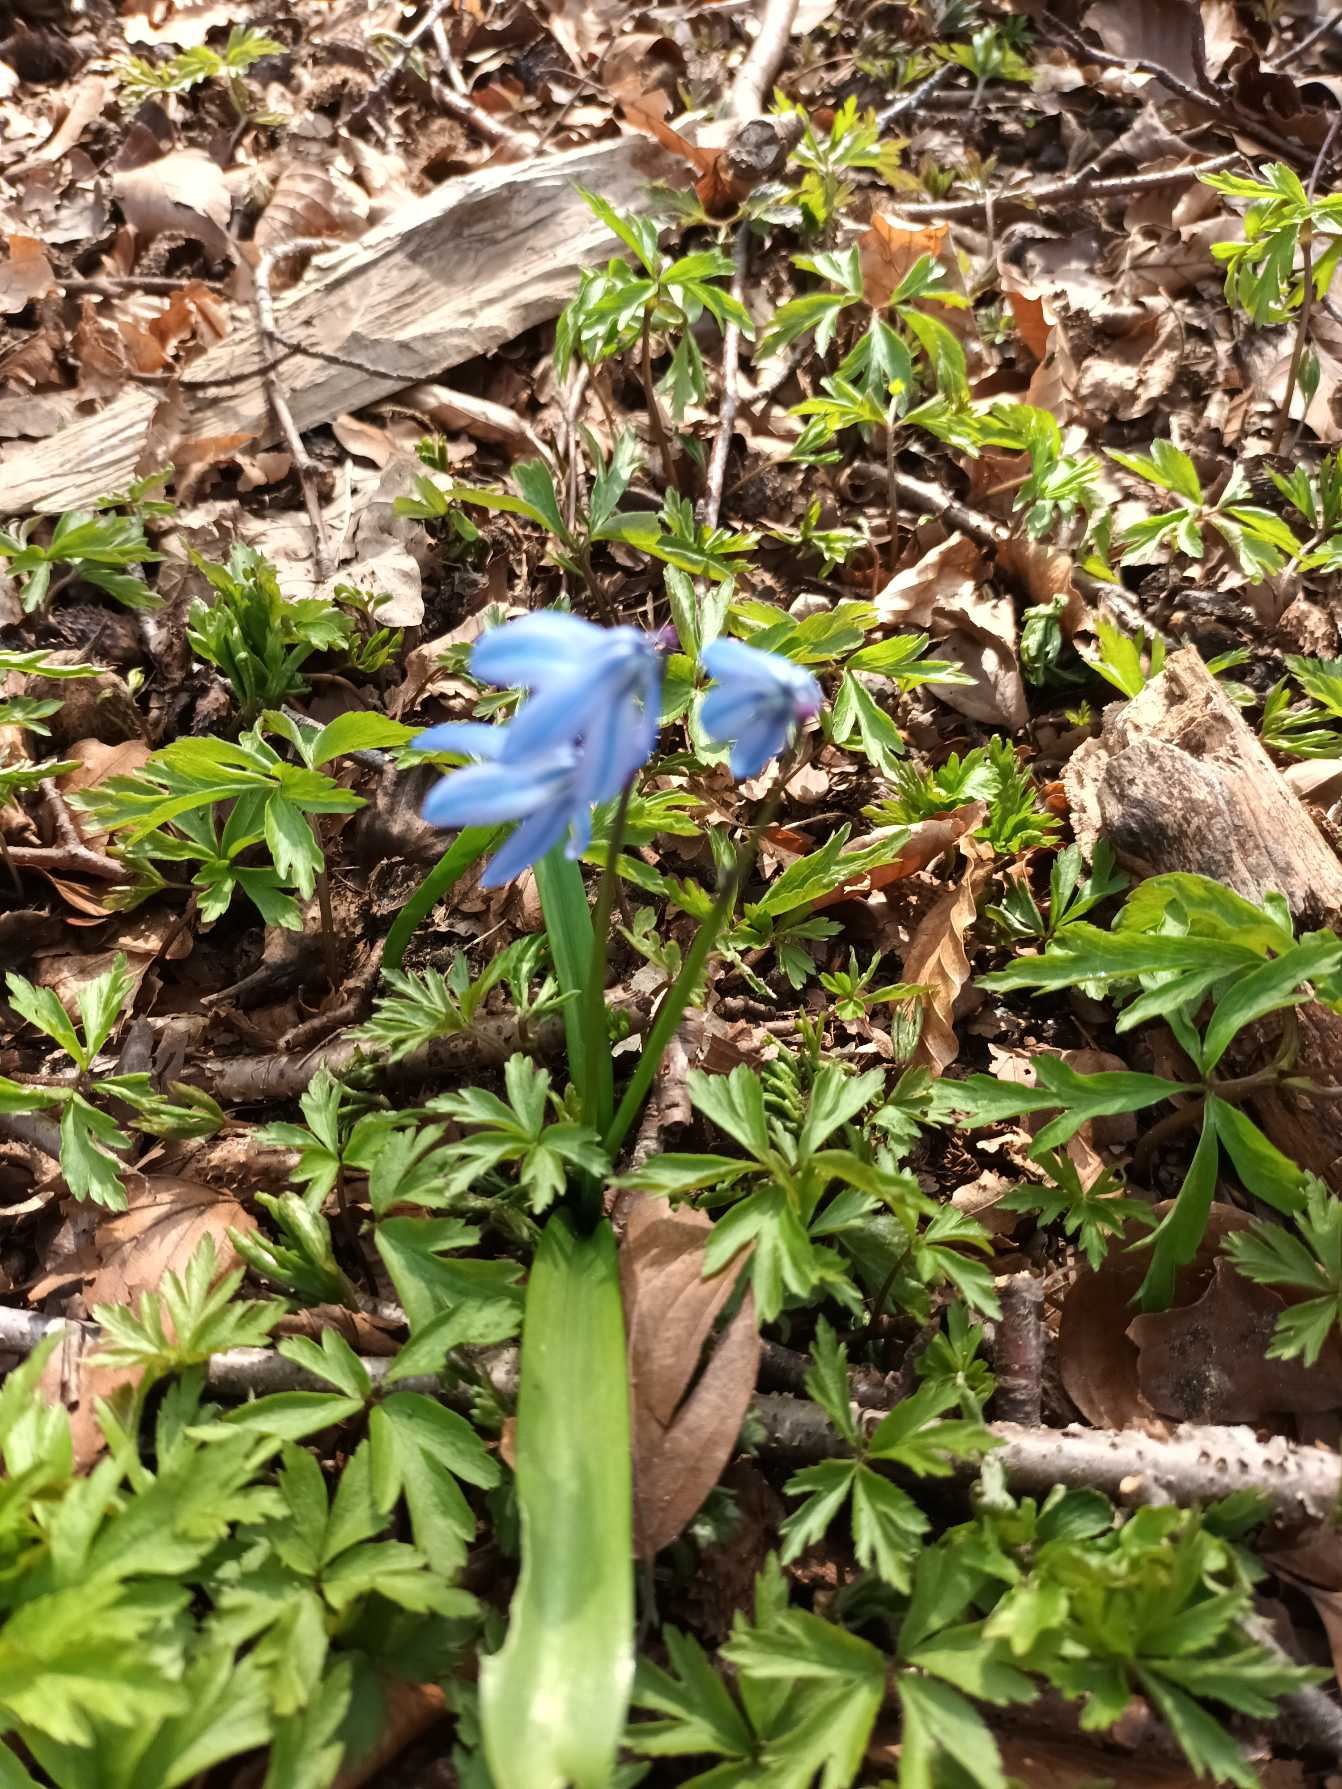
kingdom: Plantae
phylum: Tracheophyta
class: Liliopsida
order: Asparagales
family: Asparagaceae
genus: Scilla
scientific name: Scilla siberica
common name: Russisk skilla
